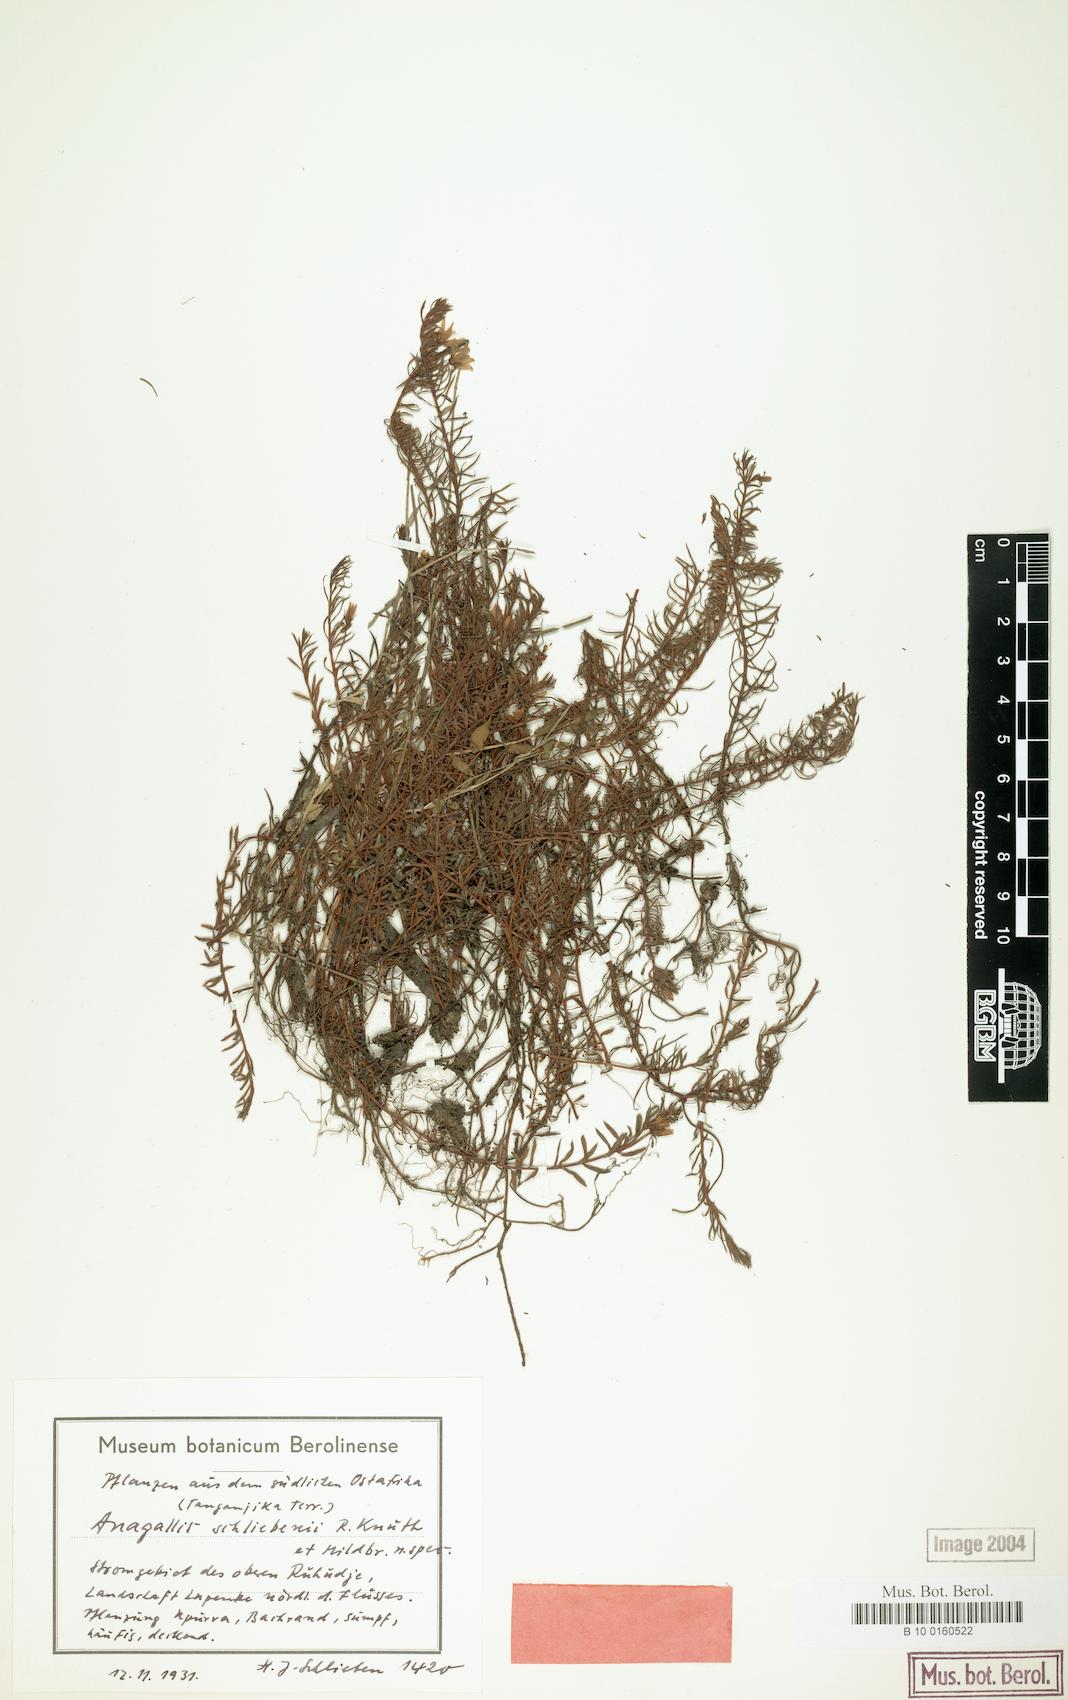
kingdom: Plantae
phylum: Tracheophyta
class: Magnoliopsida
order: Ericales
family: Primulaceae
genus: Lysimachia
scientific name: Lysimachia schliebenii
